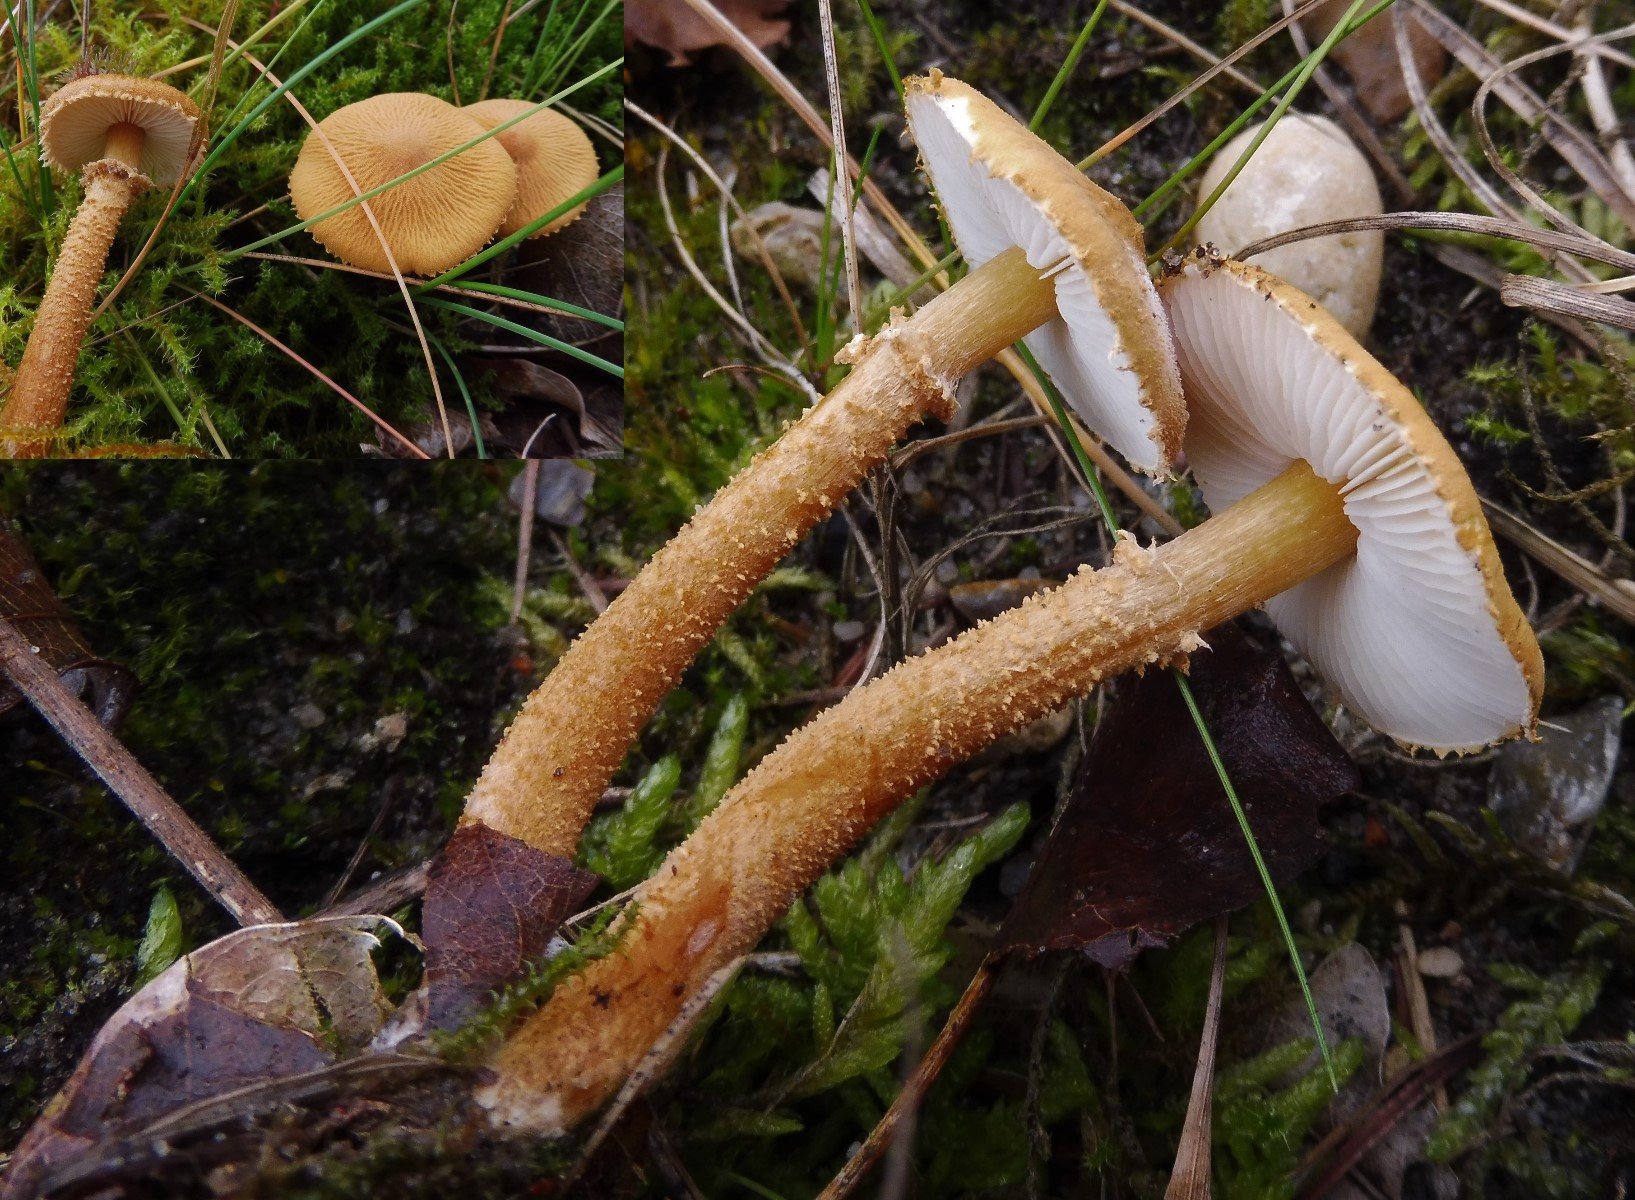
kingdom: Fungi
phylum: Basidiomycota
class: Agaricomycetes
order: Agaricales
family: Tricholomataceae
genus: Cystoderma
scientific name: Cystoderma amianthinum
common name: okkergul grynhat
